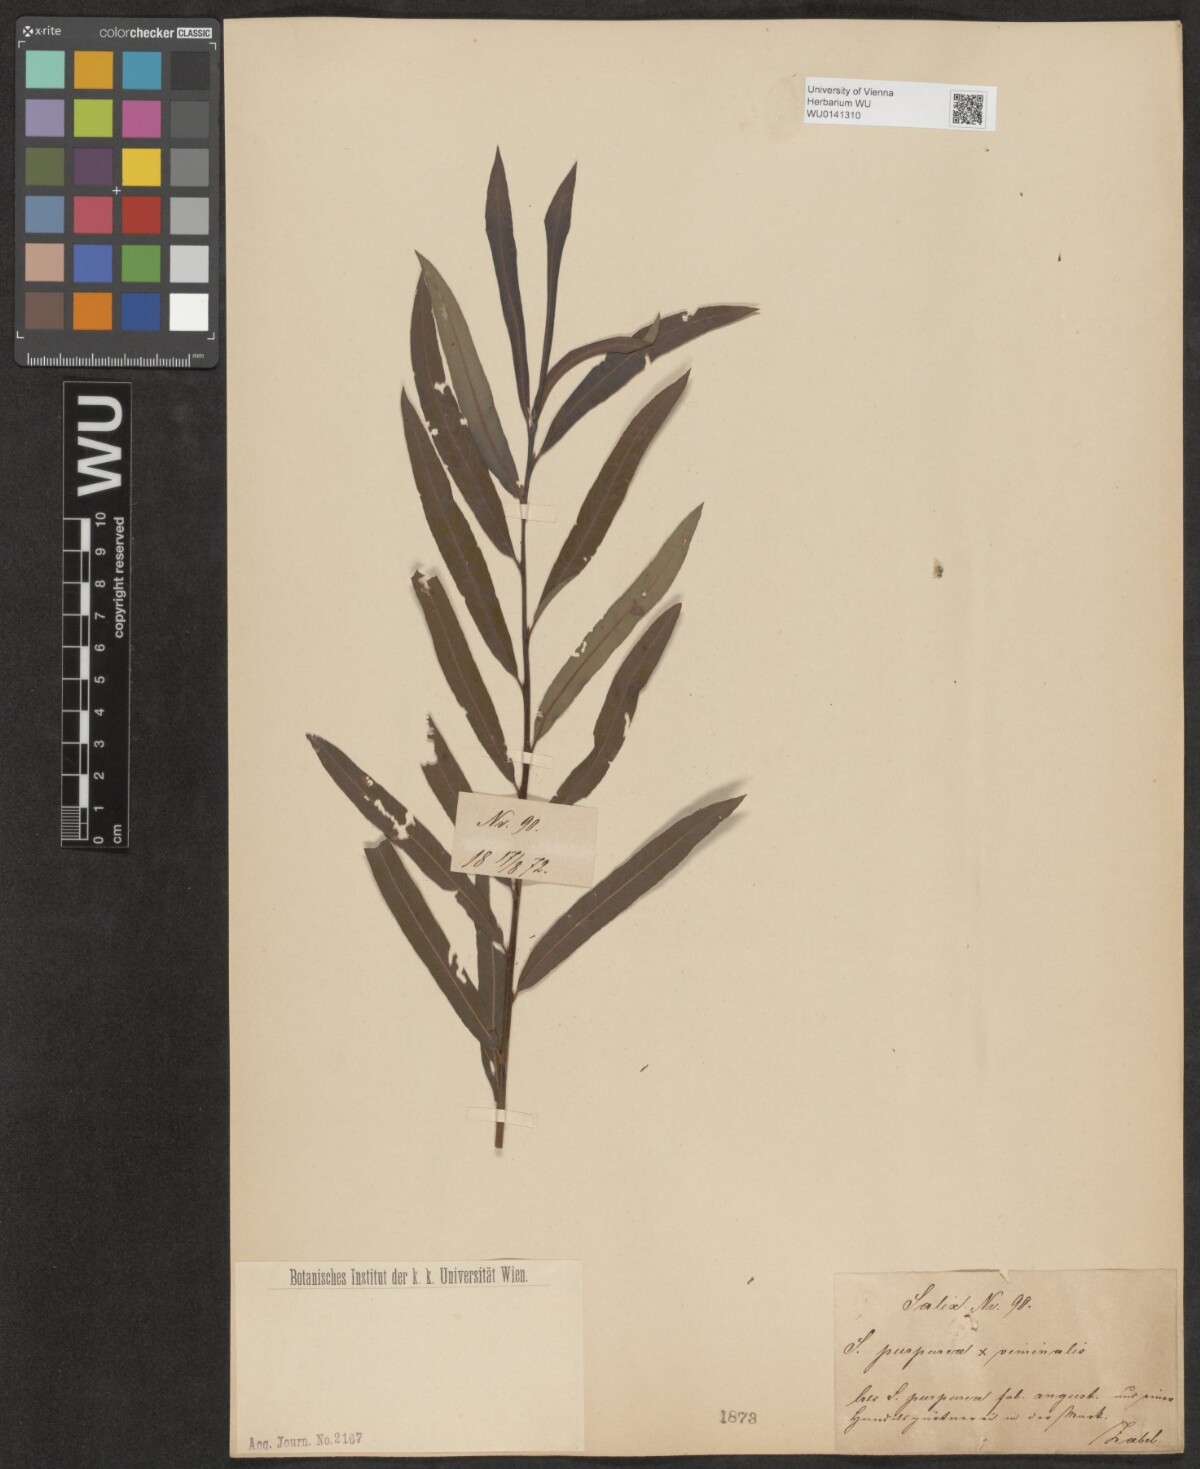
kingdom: Plantae
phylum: Tracheophyta
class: Magnoliopsida
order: Malpighiales
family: Salicaceae
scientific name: Salicaceae
